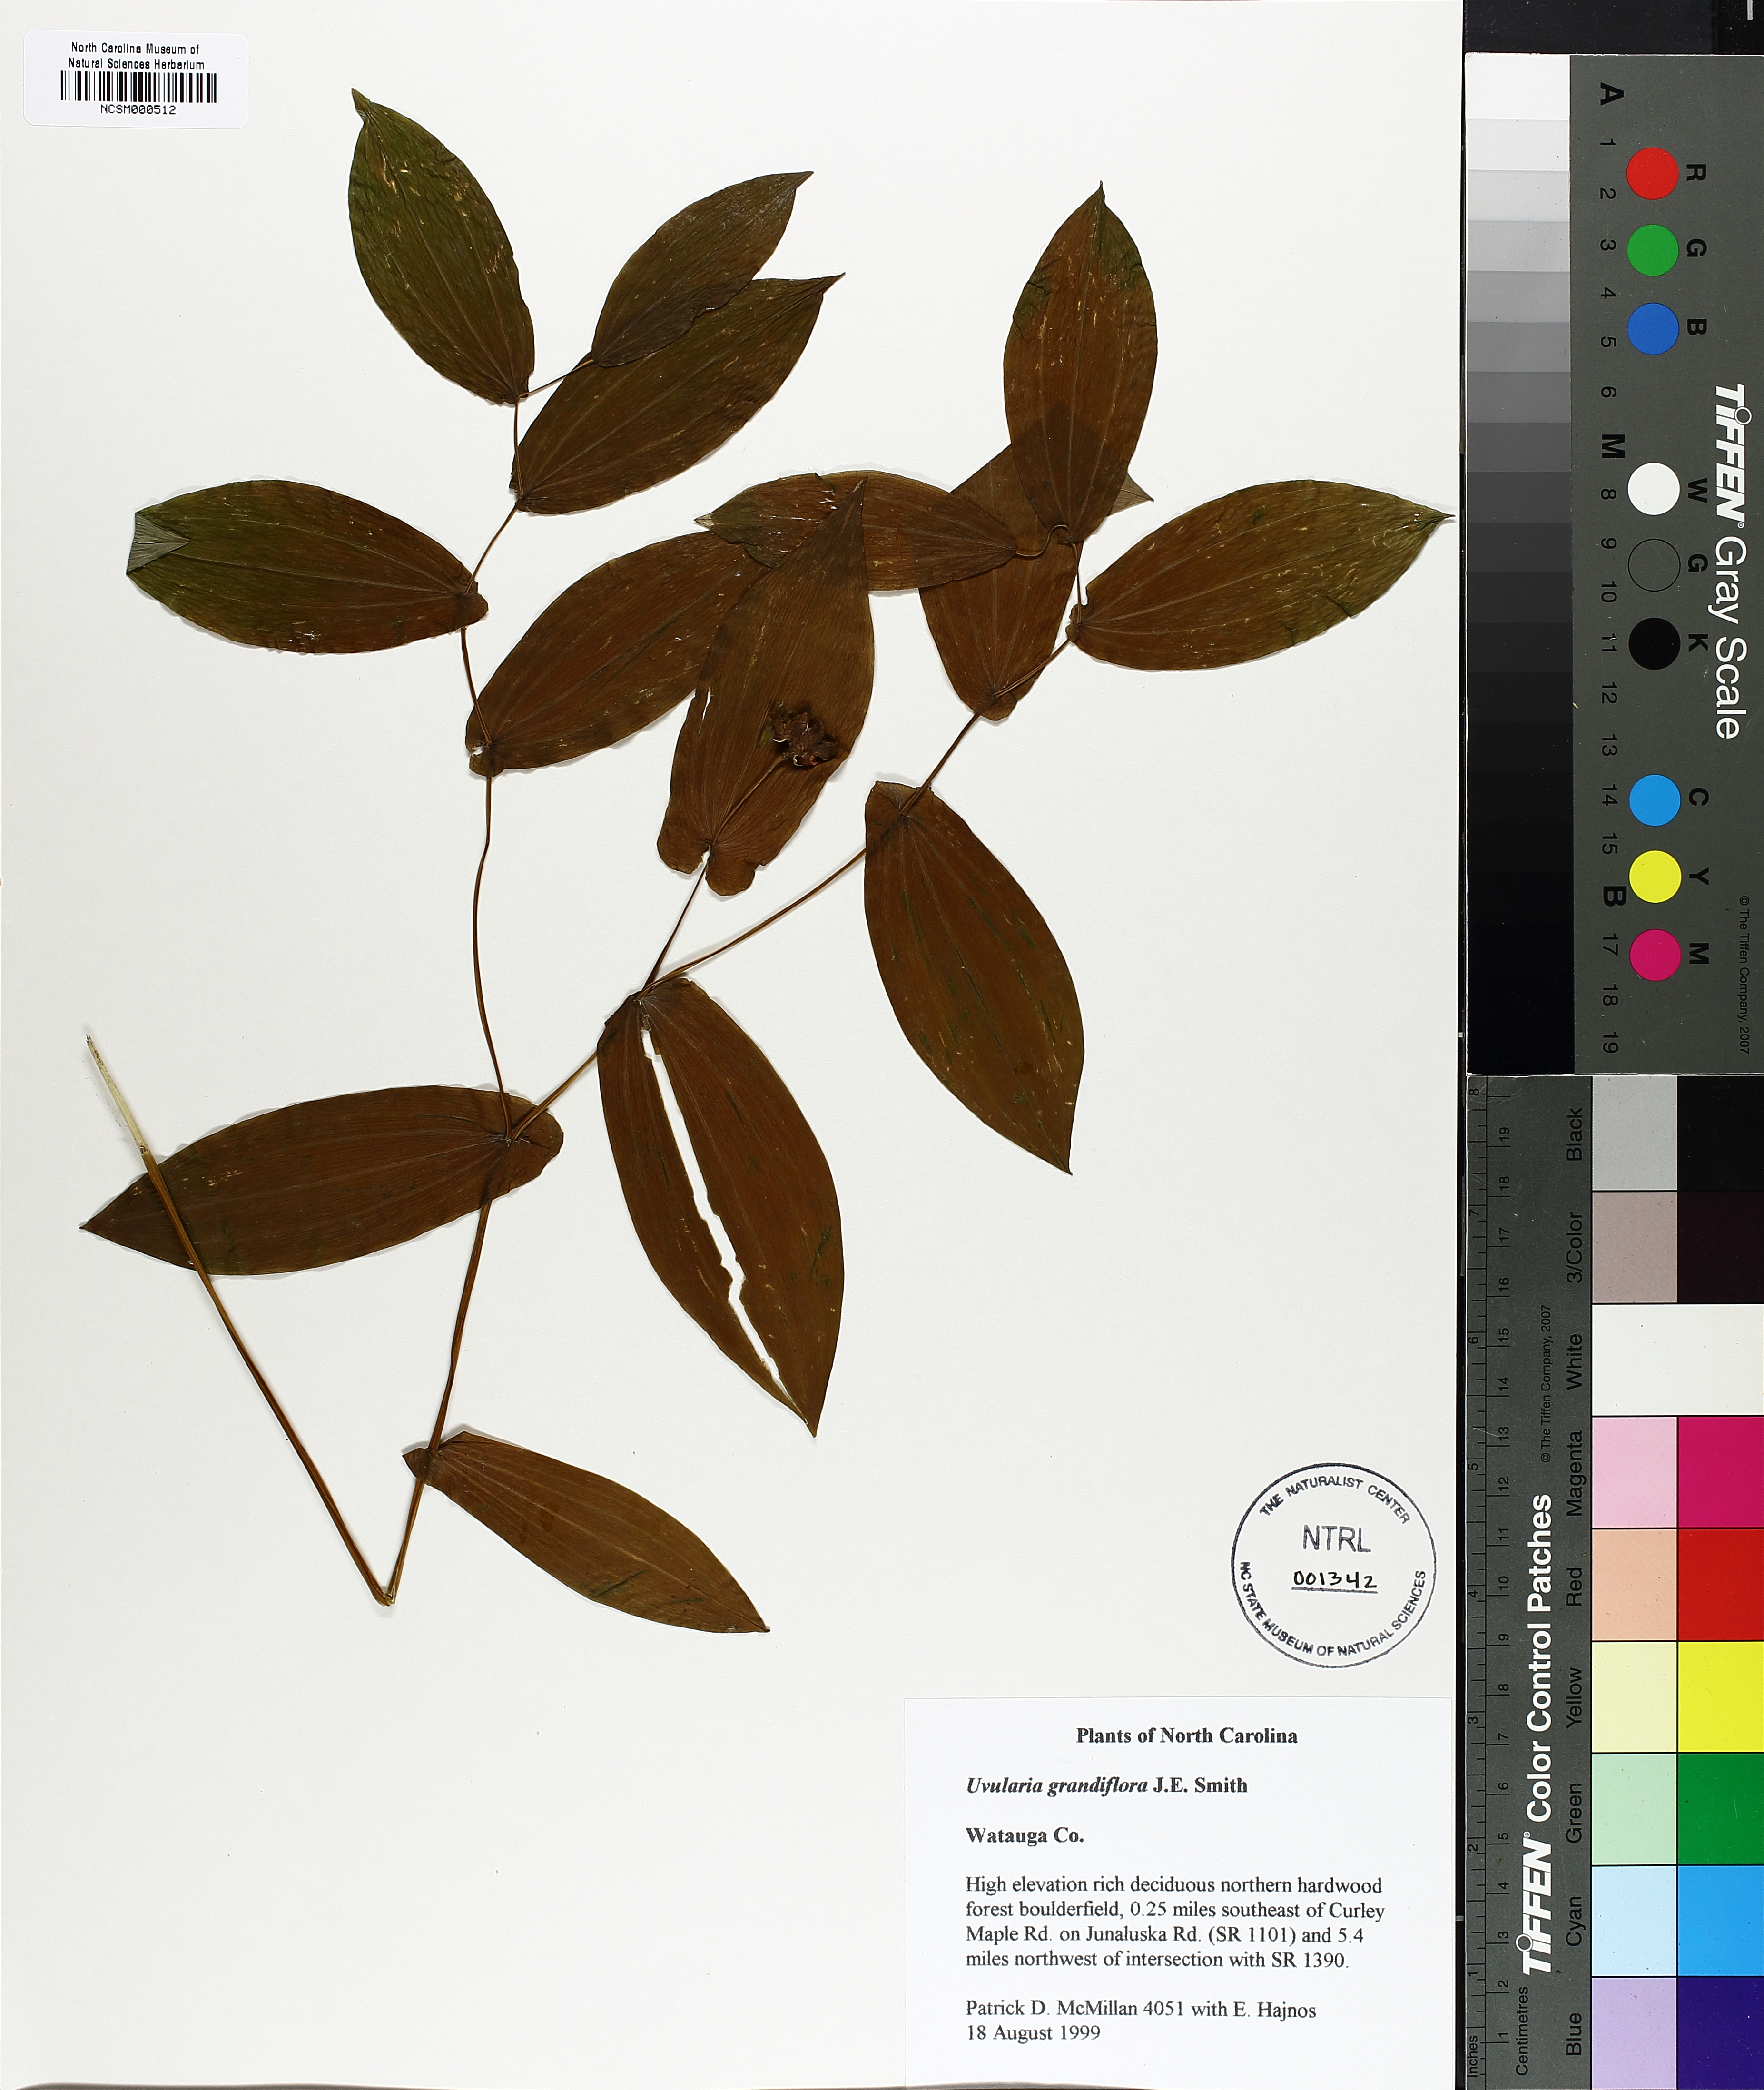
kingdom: Plantae
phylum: Tracheophyta
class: Liliopsida
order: Liliales
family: Colchicaceae
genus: Uvularia
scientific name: Uvularia grandiflora
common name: Bellwort
